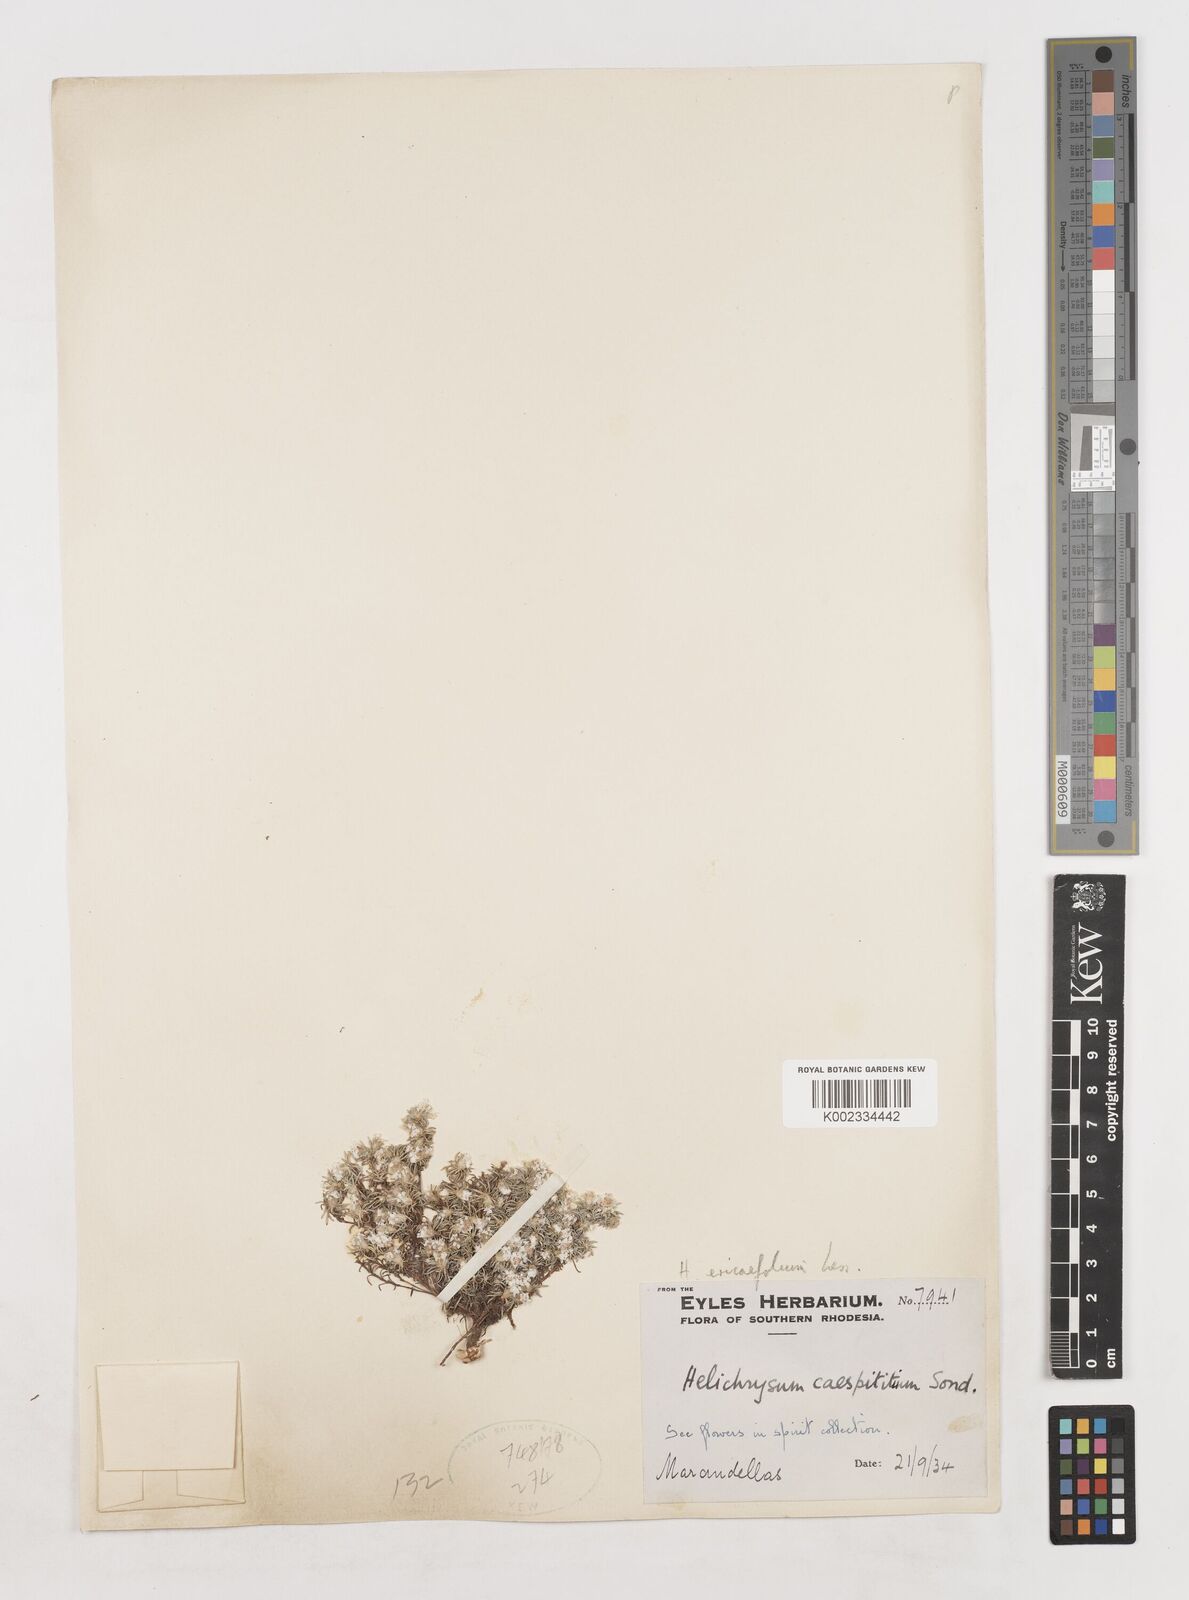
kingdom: Plantae
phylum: Tracheophyta
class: Magnoliopsida
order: Asterales
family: Asteraceae
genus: Helichrysum
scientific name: Helichrysum caespititium
